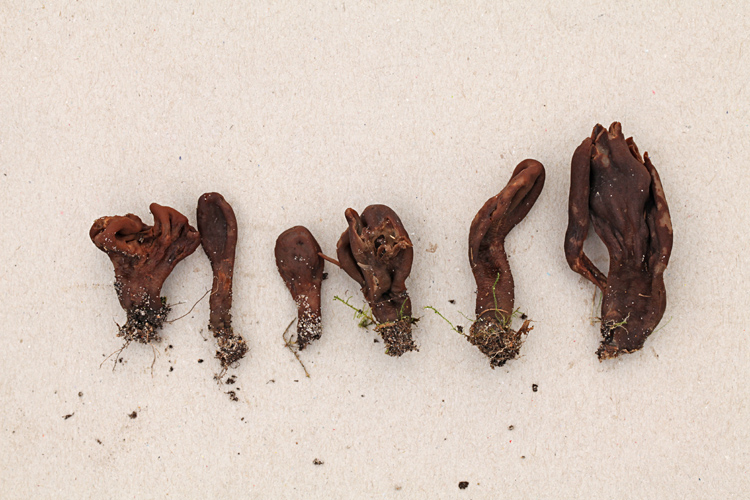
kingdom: Fungi
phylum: Ascomycota
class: Geoglossomycetes
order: Geoglossales
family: Geoglossaceae
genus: Geoglossum
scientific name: Geoglossum atropurpureum
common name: purpursort farvetunge
